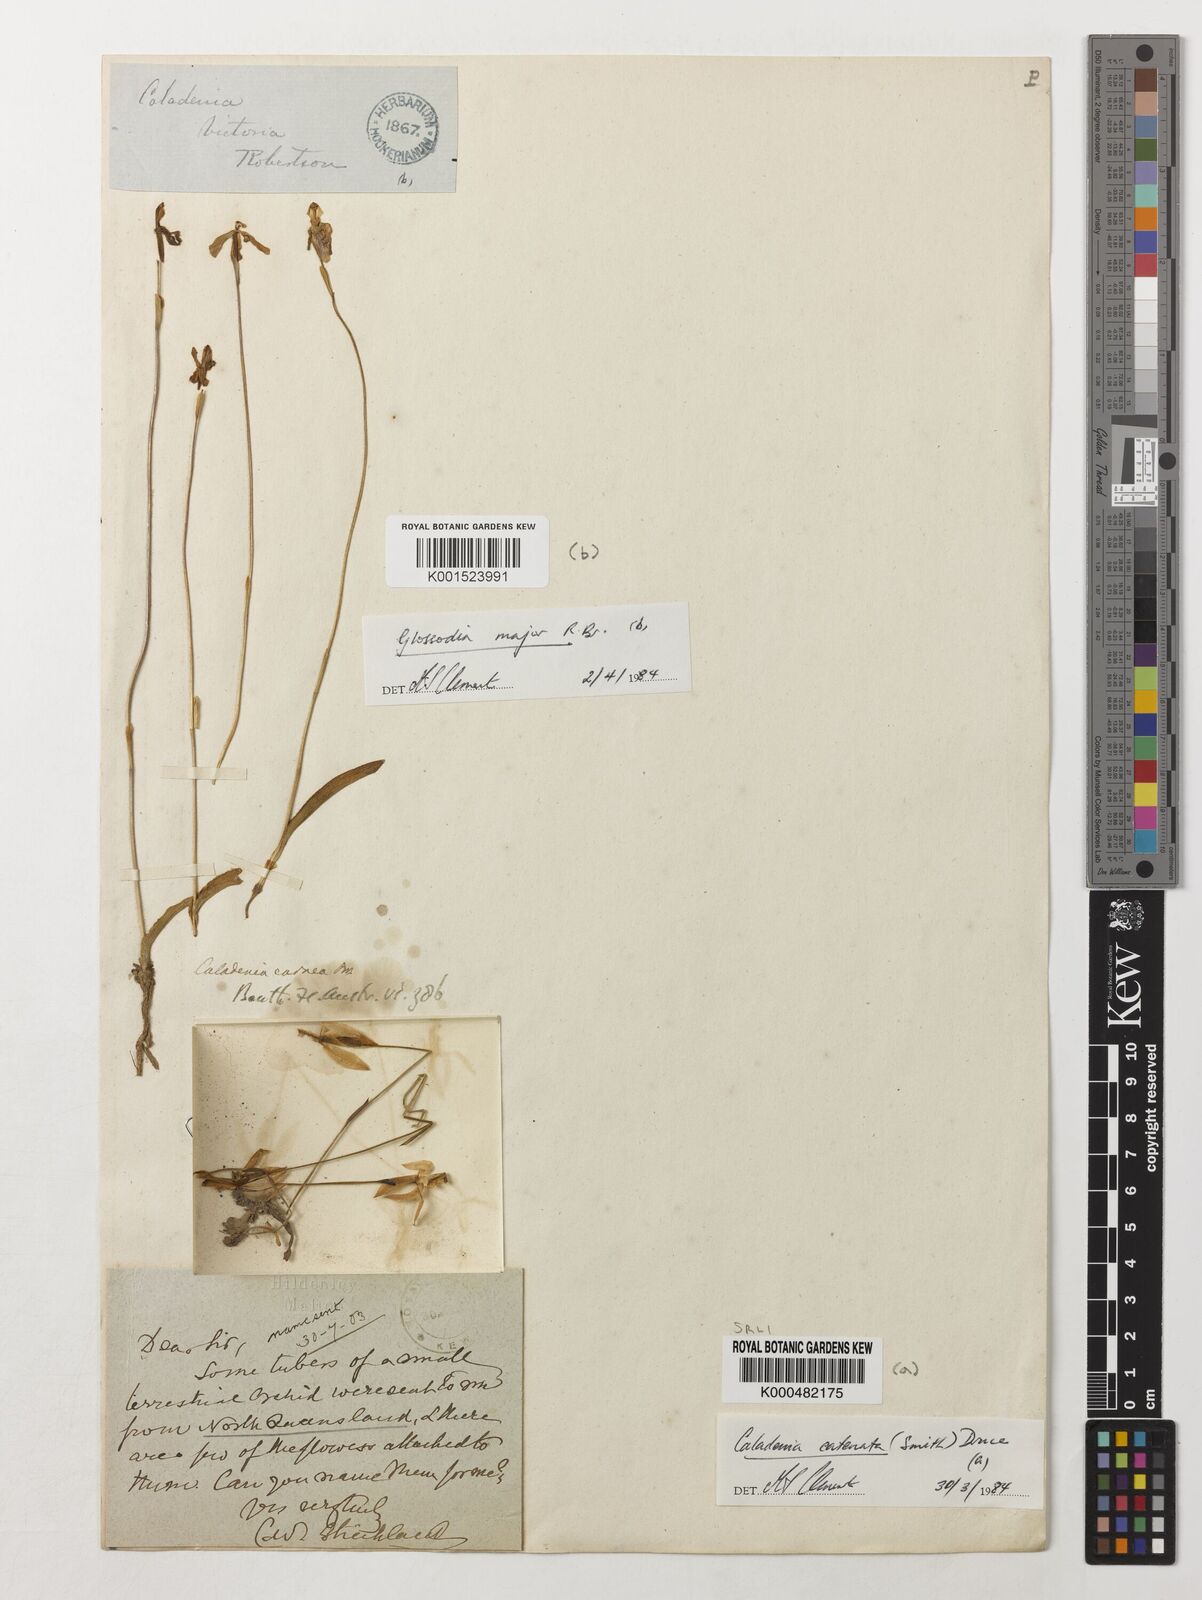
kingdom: Plantae
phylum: Tracheophyta
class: Liliopsida
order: Asparagales
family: Orchidaceae
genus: Caladenia
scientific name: Caladenia
